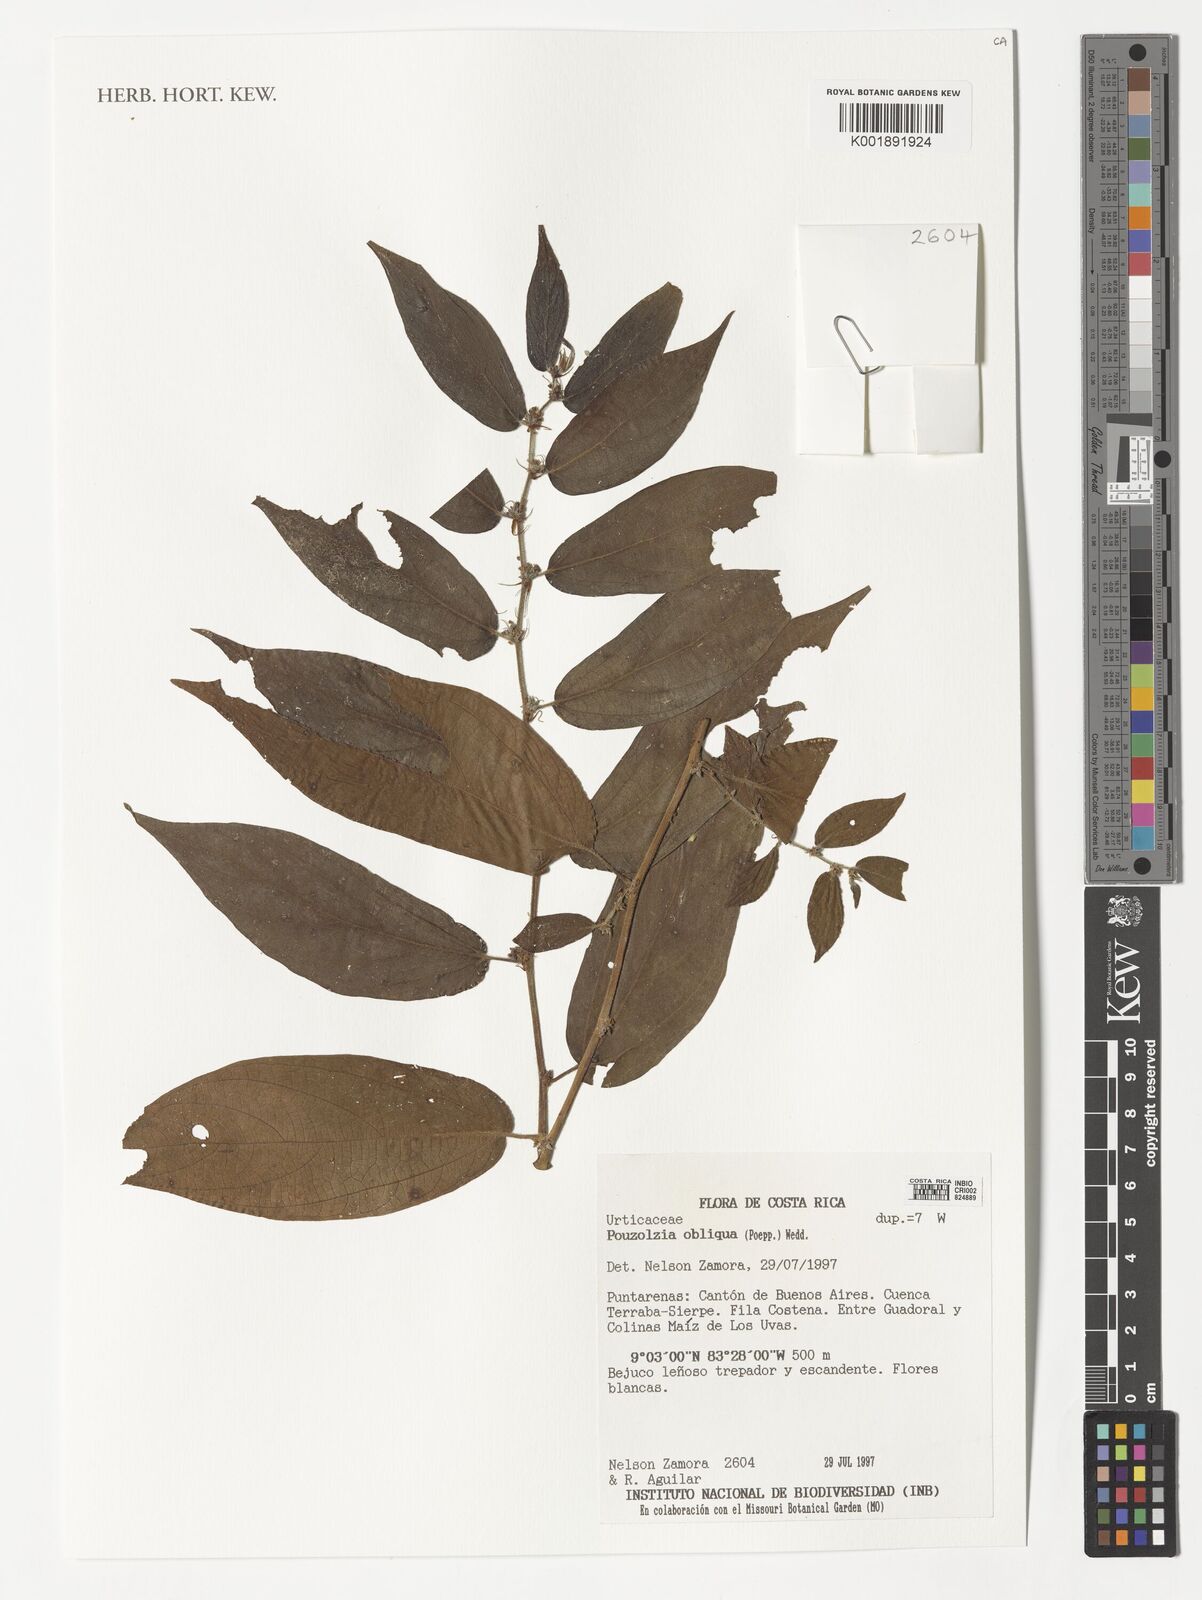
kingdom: Plantae
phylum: Tracheophyta
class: Magnoliopsida
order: Rosales
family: Urticaceae
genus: Pouzolzia
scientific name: Pouzolzia obliqua
